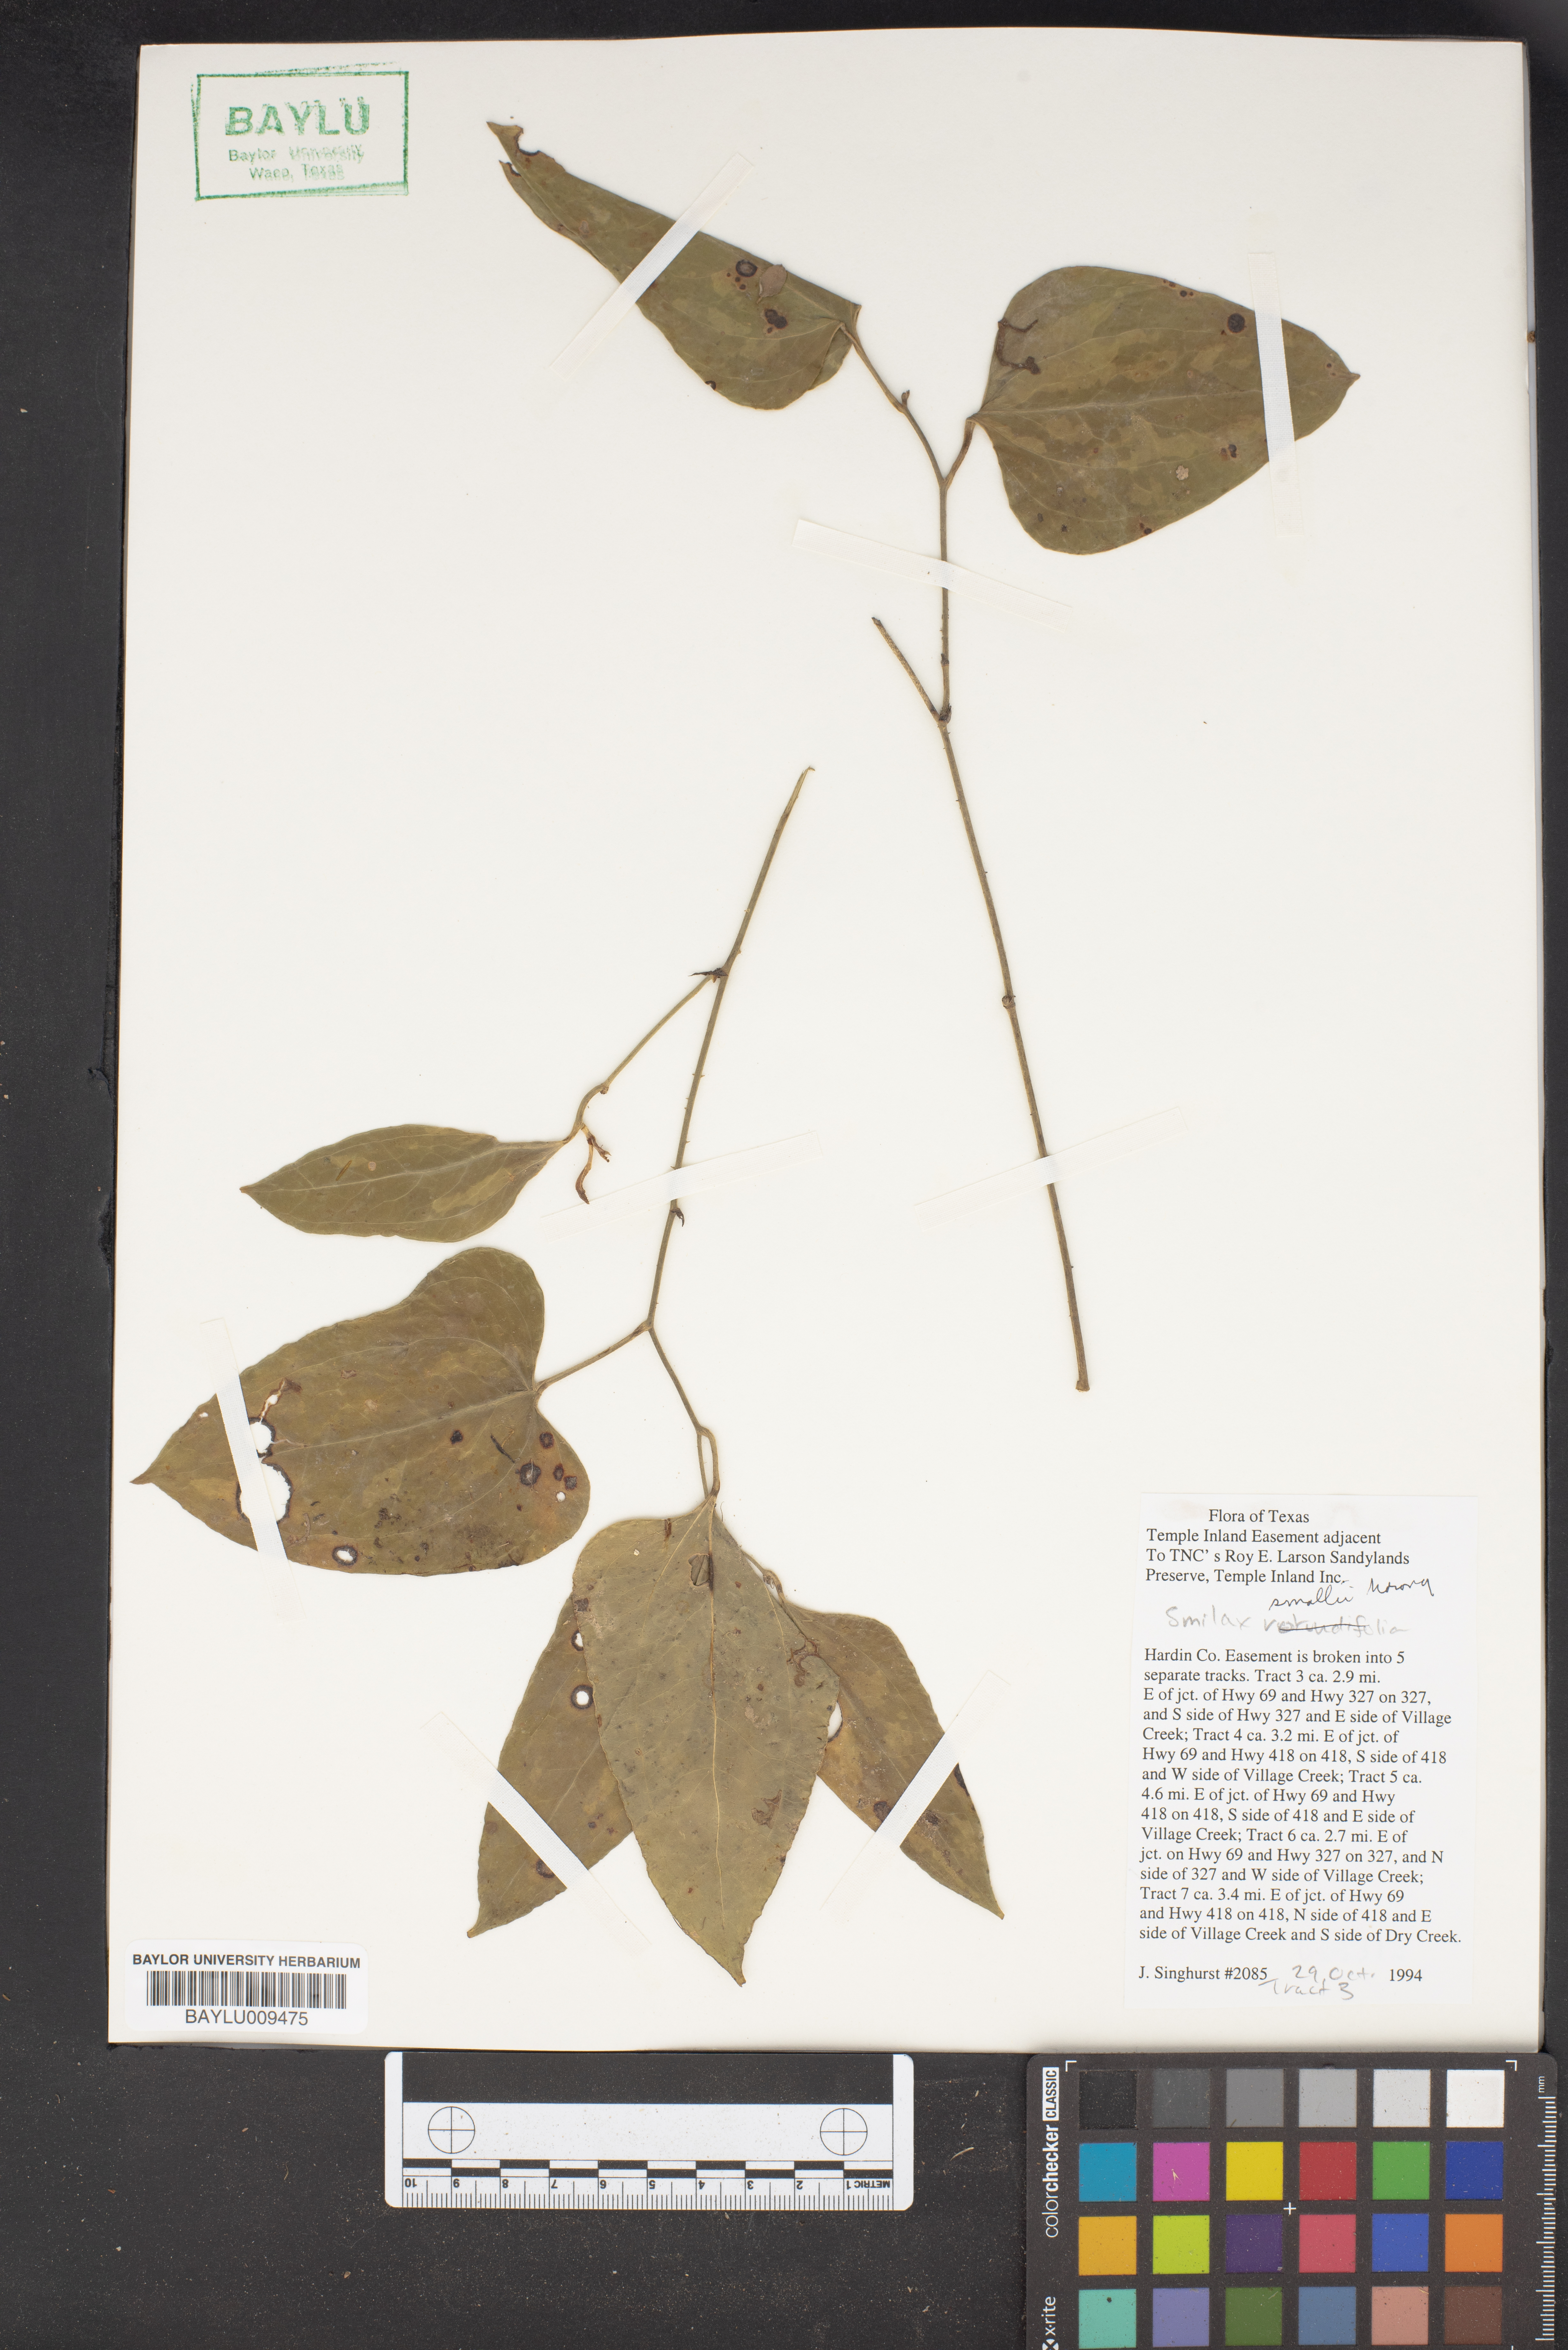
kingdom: Plantae
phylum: Tracheophyta
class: Liliopsida
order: Liliales
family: Smilacaceae
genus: Smilax
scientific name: Smilax maritima
